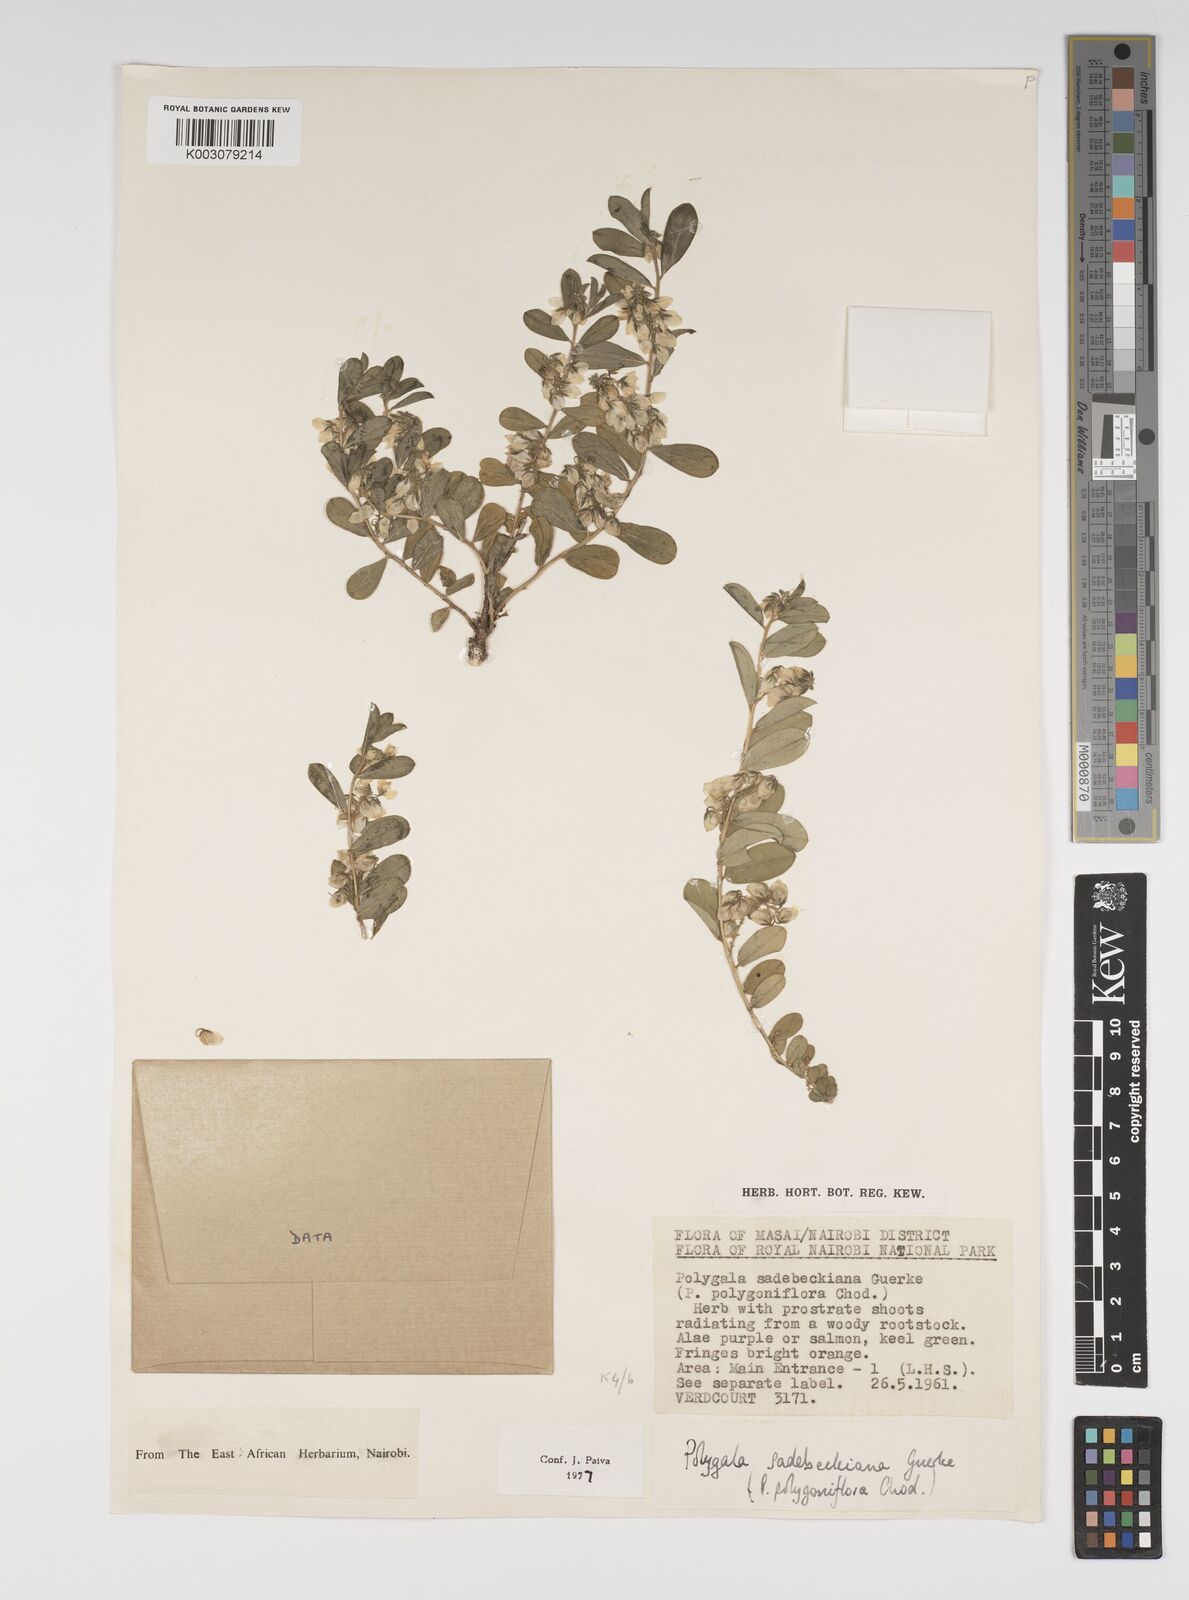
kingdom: Plantae
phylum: Tracheophyta
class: Magnoliopsida
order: Fabales
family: Polygalaceae
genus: Polygala
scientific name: Polygala sadebeckiana
